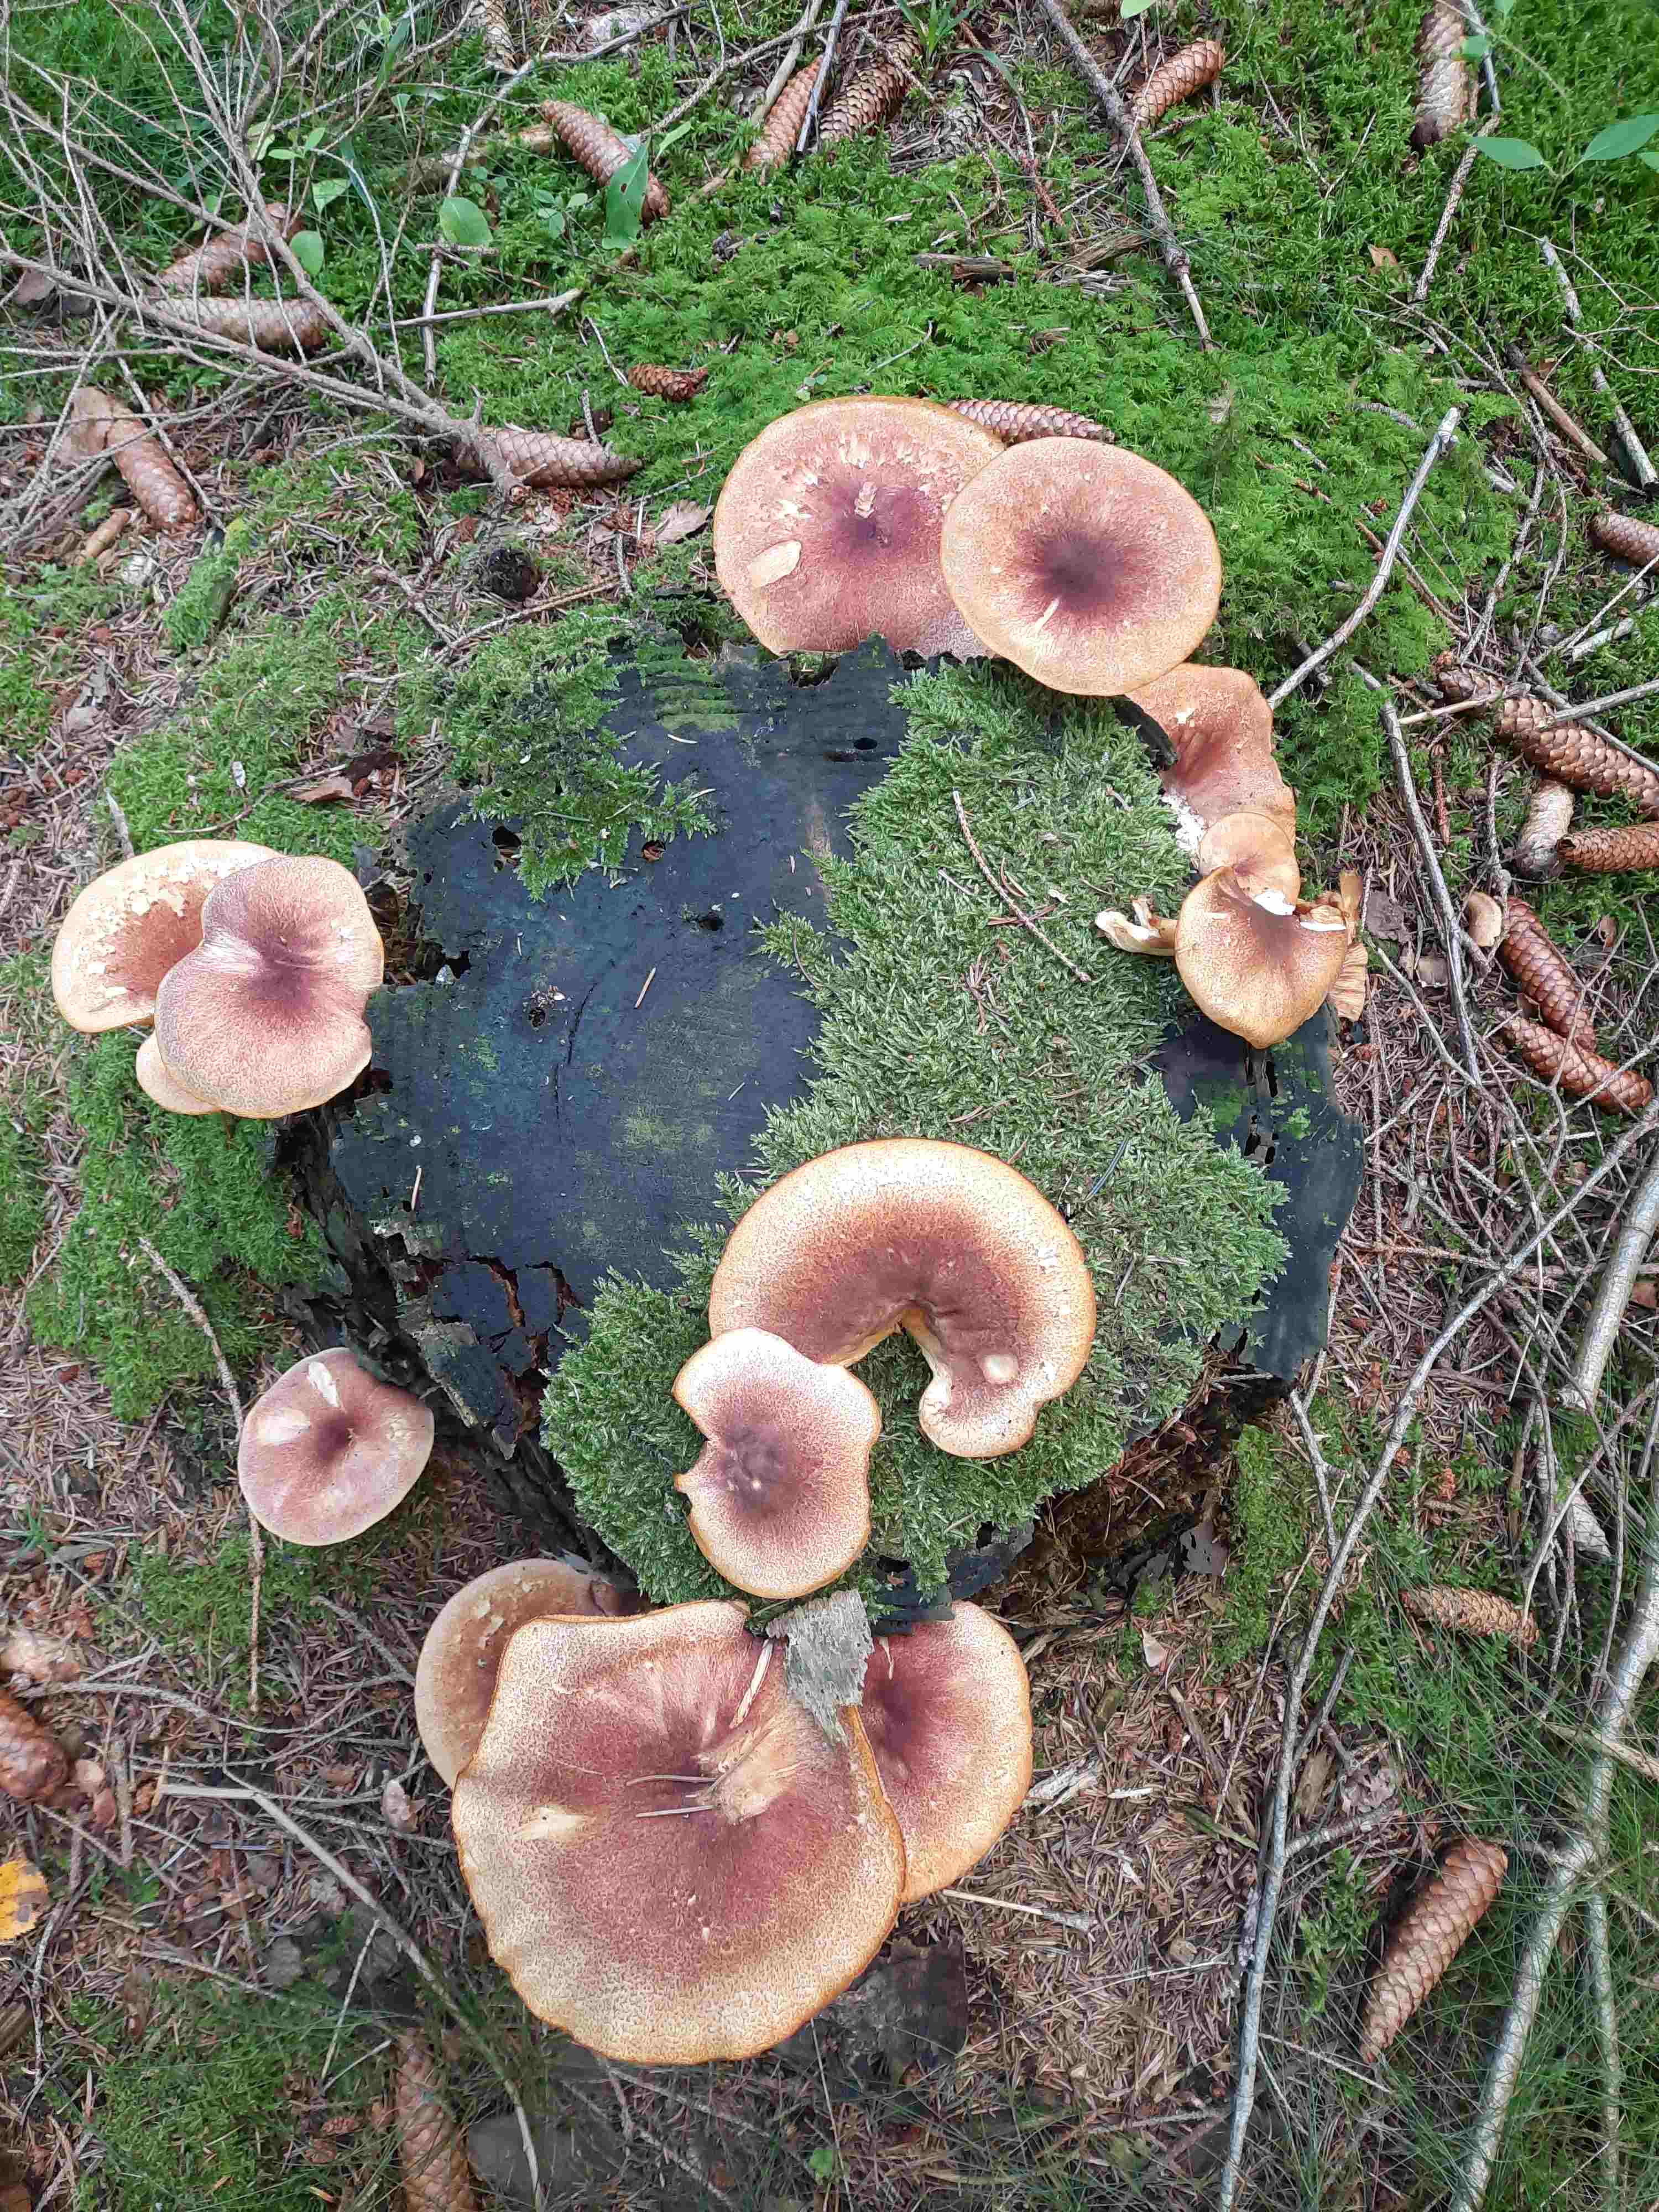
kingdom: Fungi
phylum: Basidiomycota
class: Agaricomycetes
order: Agaricales
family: Tricholomataceae
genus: Tricholomopsis
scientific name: Tricholomopsis rutilans
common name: purpur-væbnerhat
